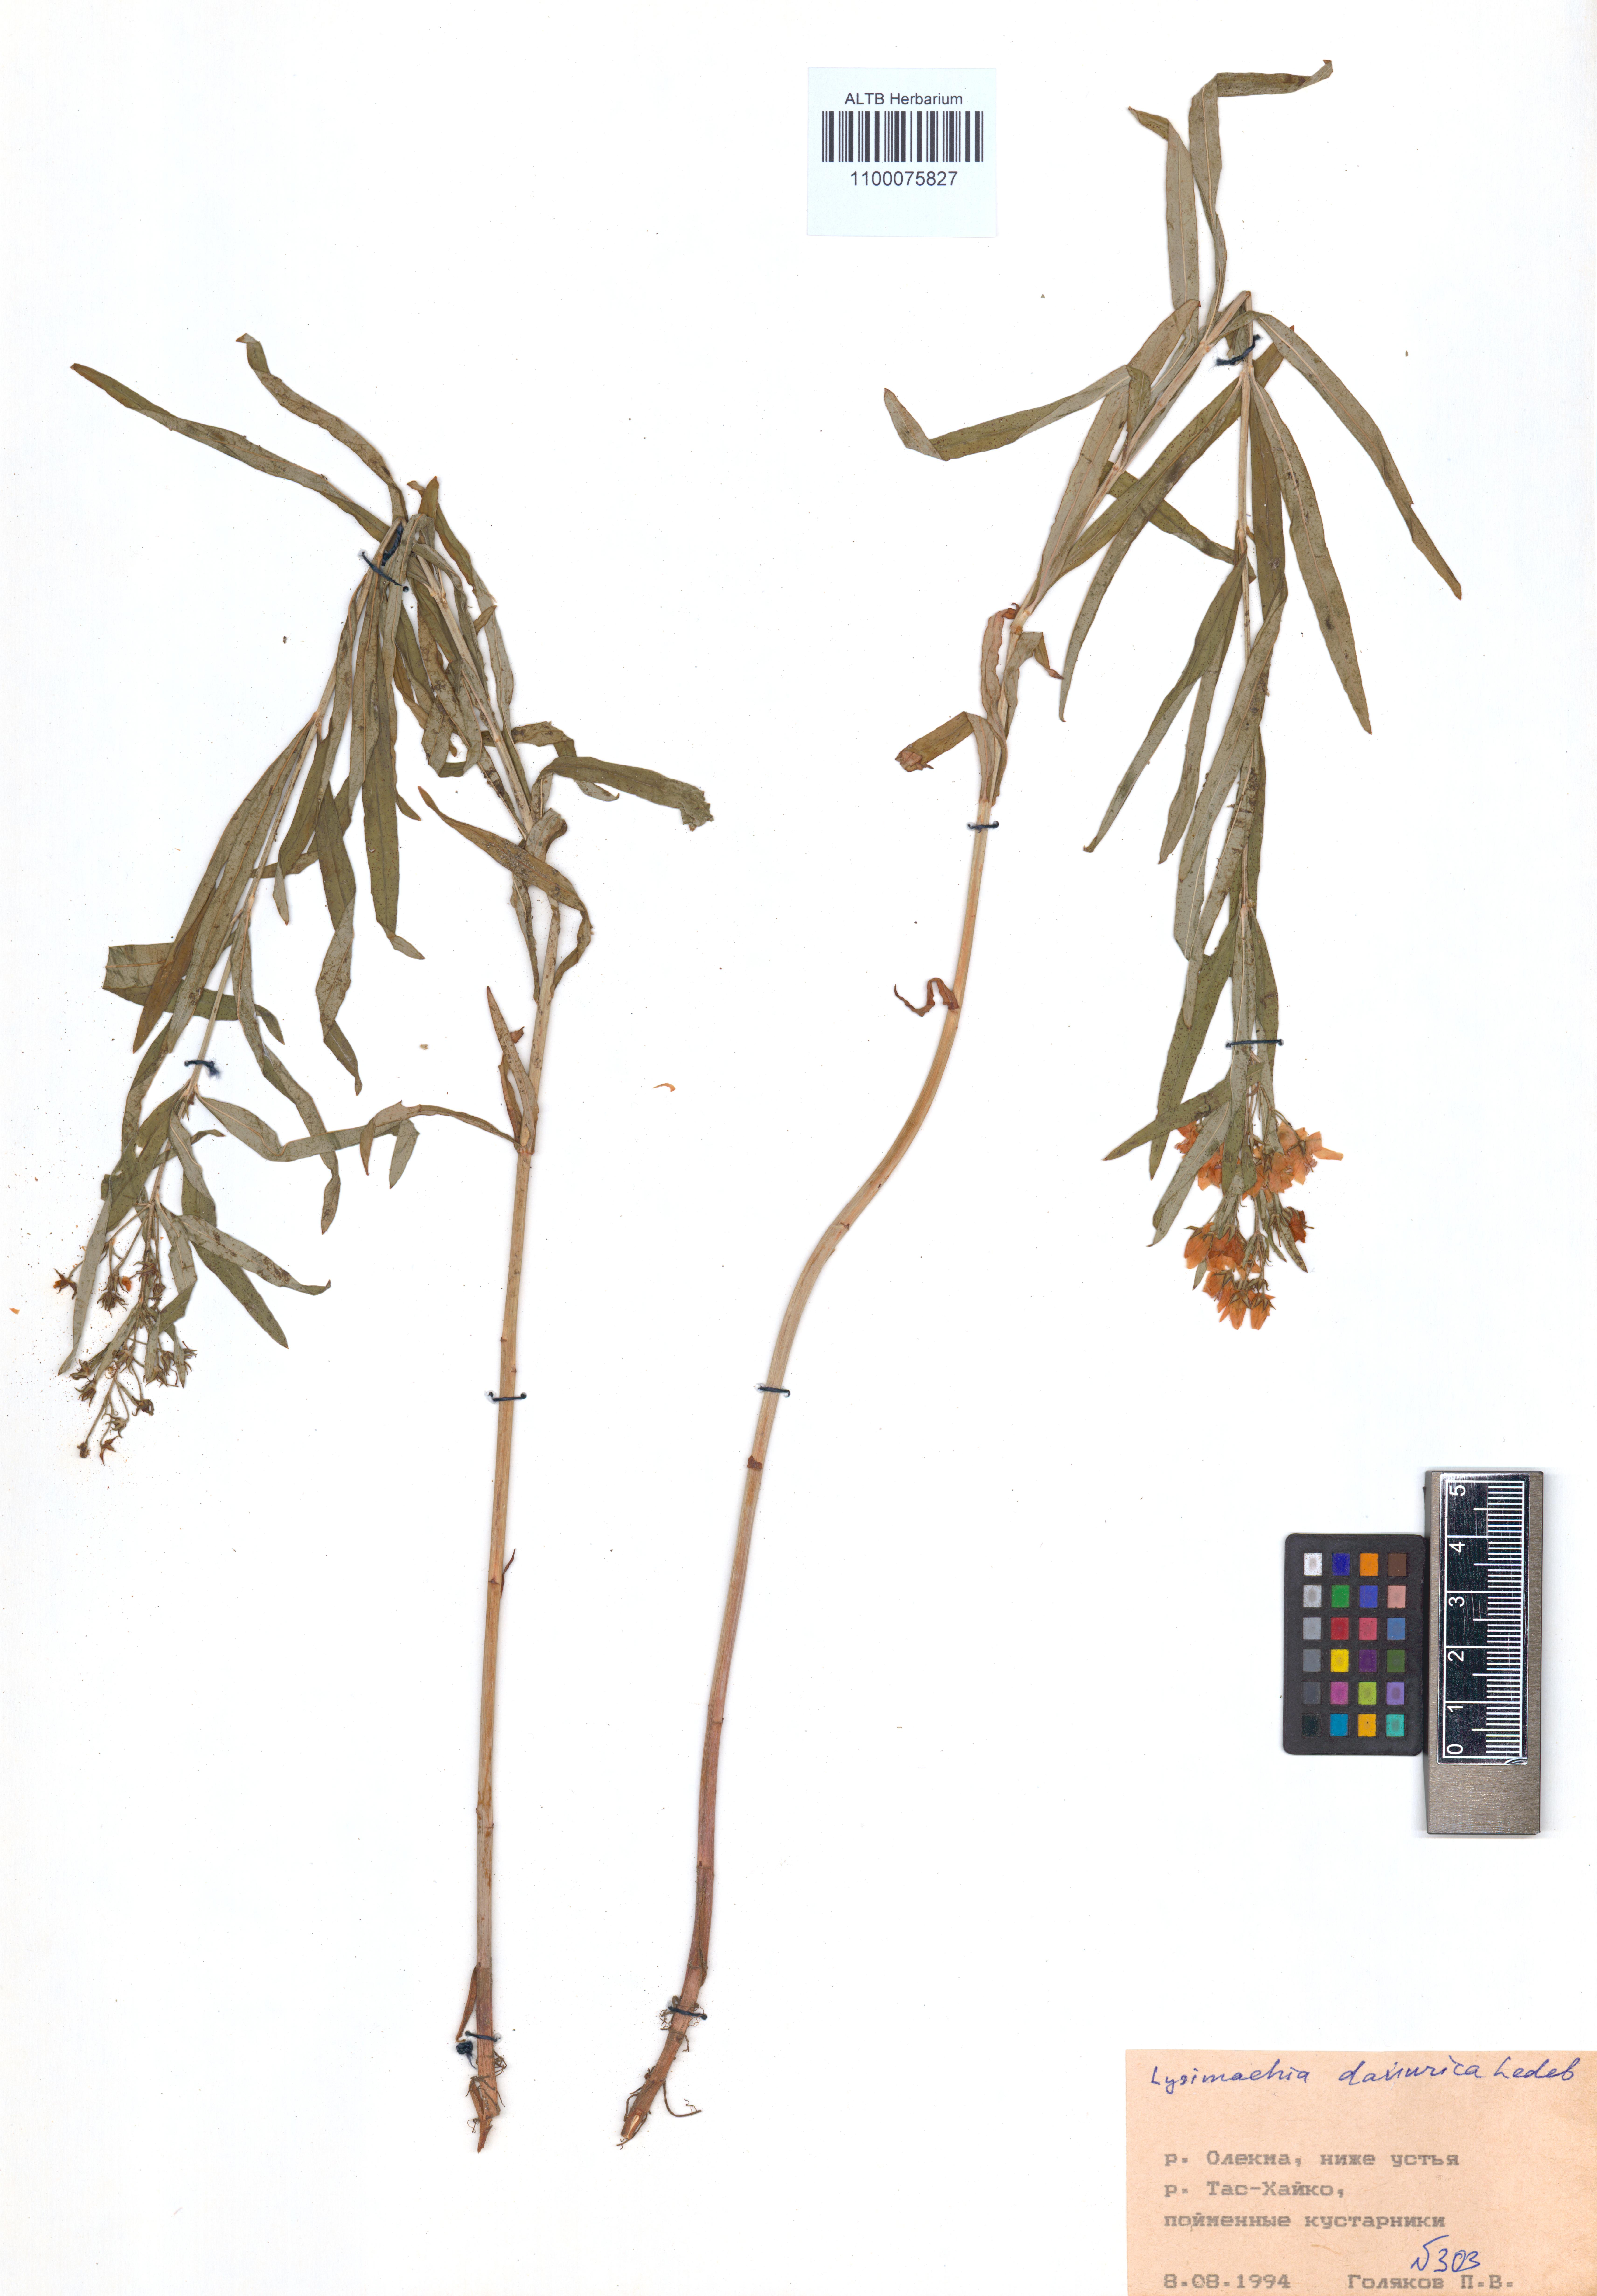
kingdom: Plantae
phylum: Tracheophyta
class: Magnoliopsida
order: Ericales
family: Primulaceae
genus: Lysimachia
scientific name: Lysimachia davurica
